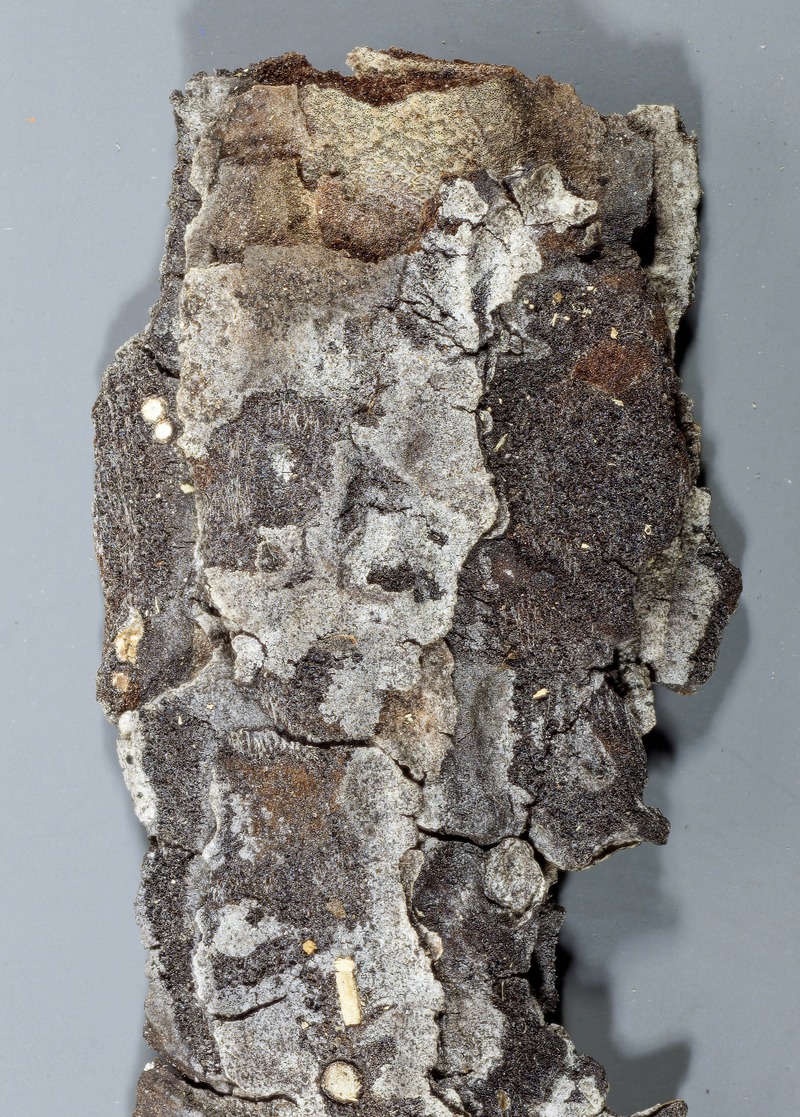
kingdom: Fungi
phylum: Ascomycota
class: Leotiomycetes
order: Chaetomellales
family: Marthamycetaceae
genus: Propolis
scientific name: Propolis leonis
